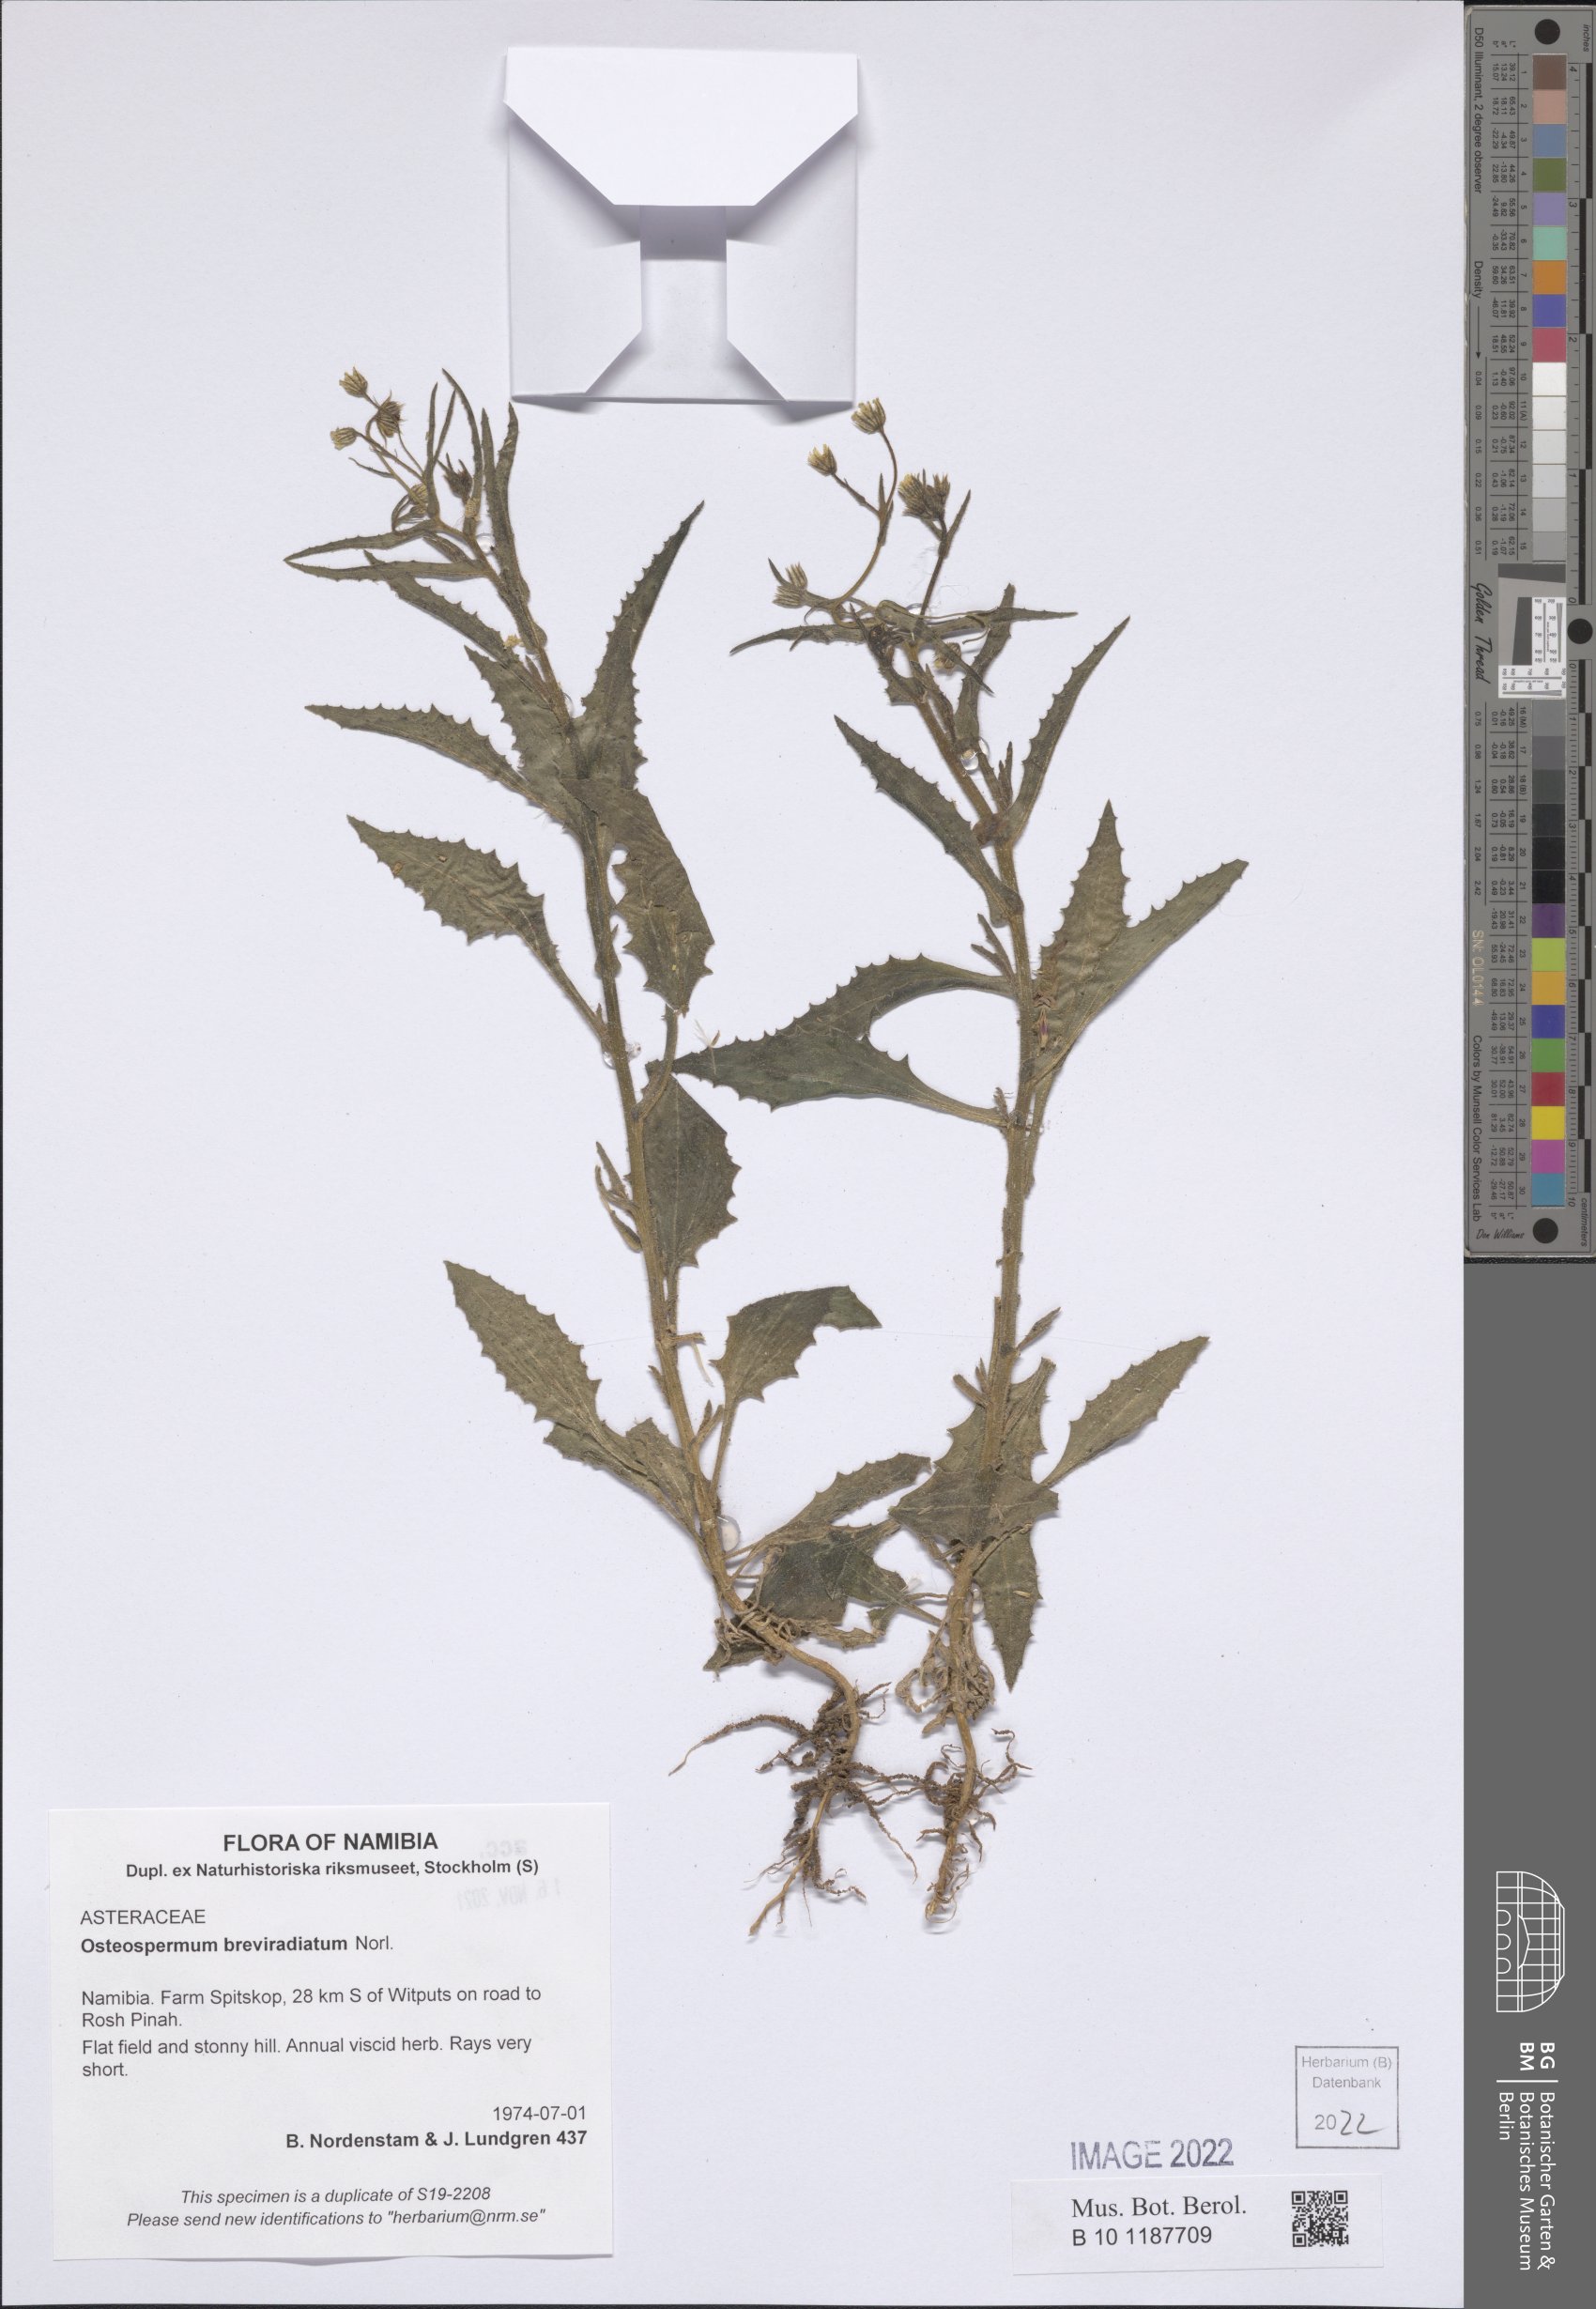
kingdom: Plantae
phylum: Tracheophyta
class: Magnoliopsida
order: Asterales
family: Asteraceae
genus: Osteospermum
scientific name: Osteospermum breviradiatum
